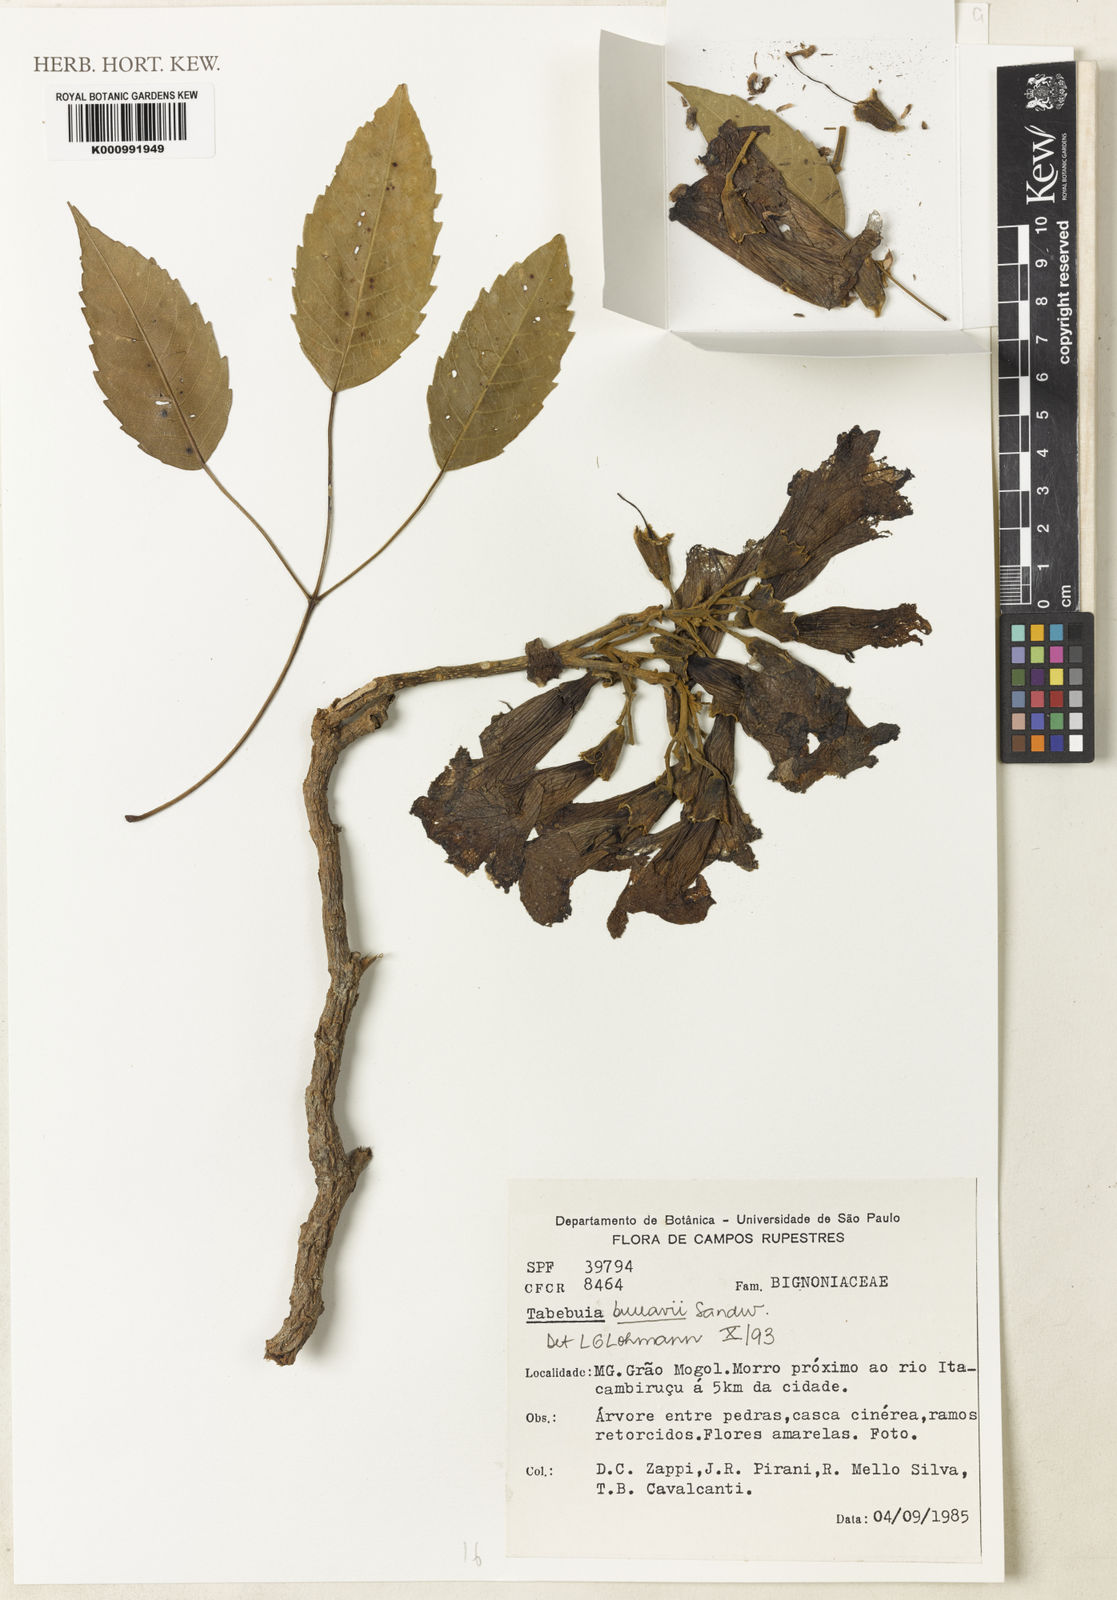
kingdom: Plantae
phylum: Tracheophyta
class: Magnoliopsida
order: Lamiales
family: Bignoniaceae
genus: Handroanthus
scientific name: Handroanthus billbergii
